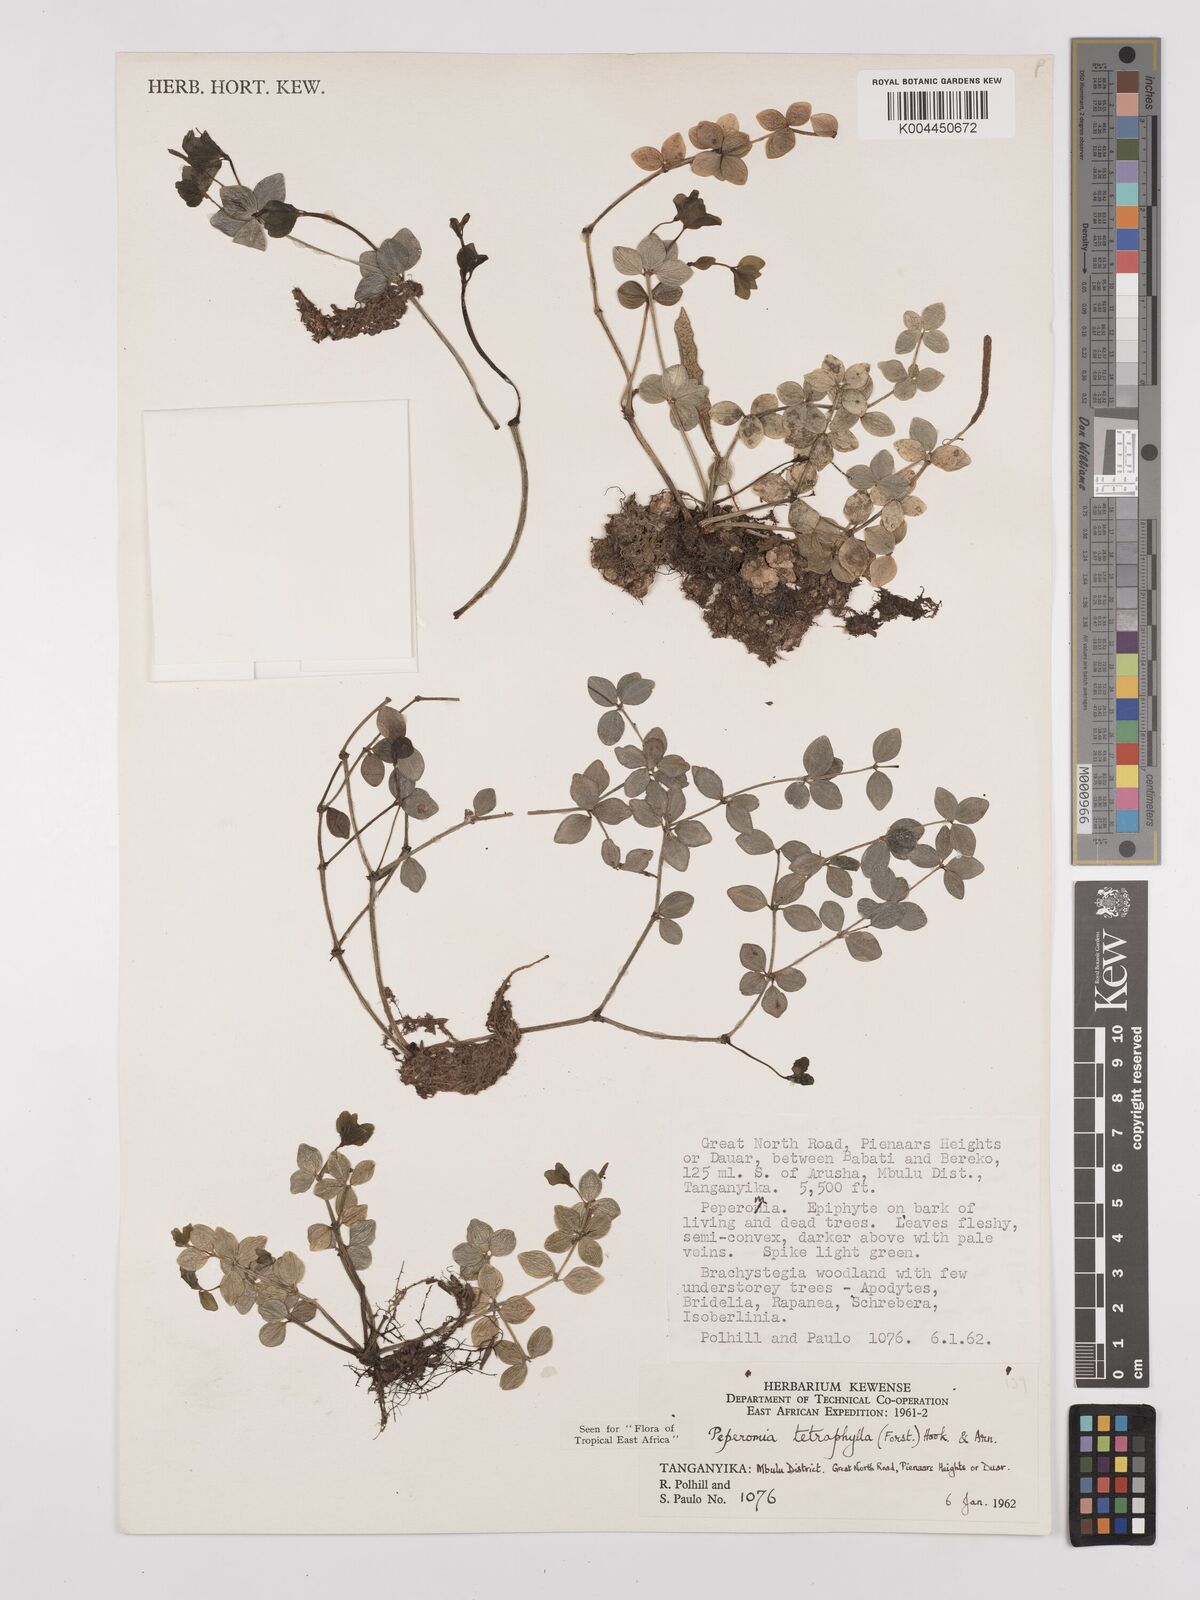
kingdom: Plantae
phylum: Tracheophyta
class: Magnoliopsida
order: Piperales
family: Piperaceae
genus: Peperomia
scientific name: Peperomia tetraphylla
